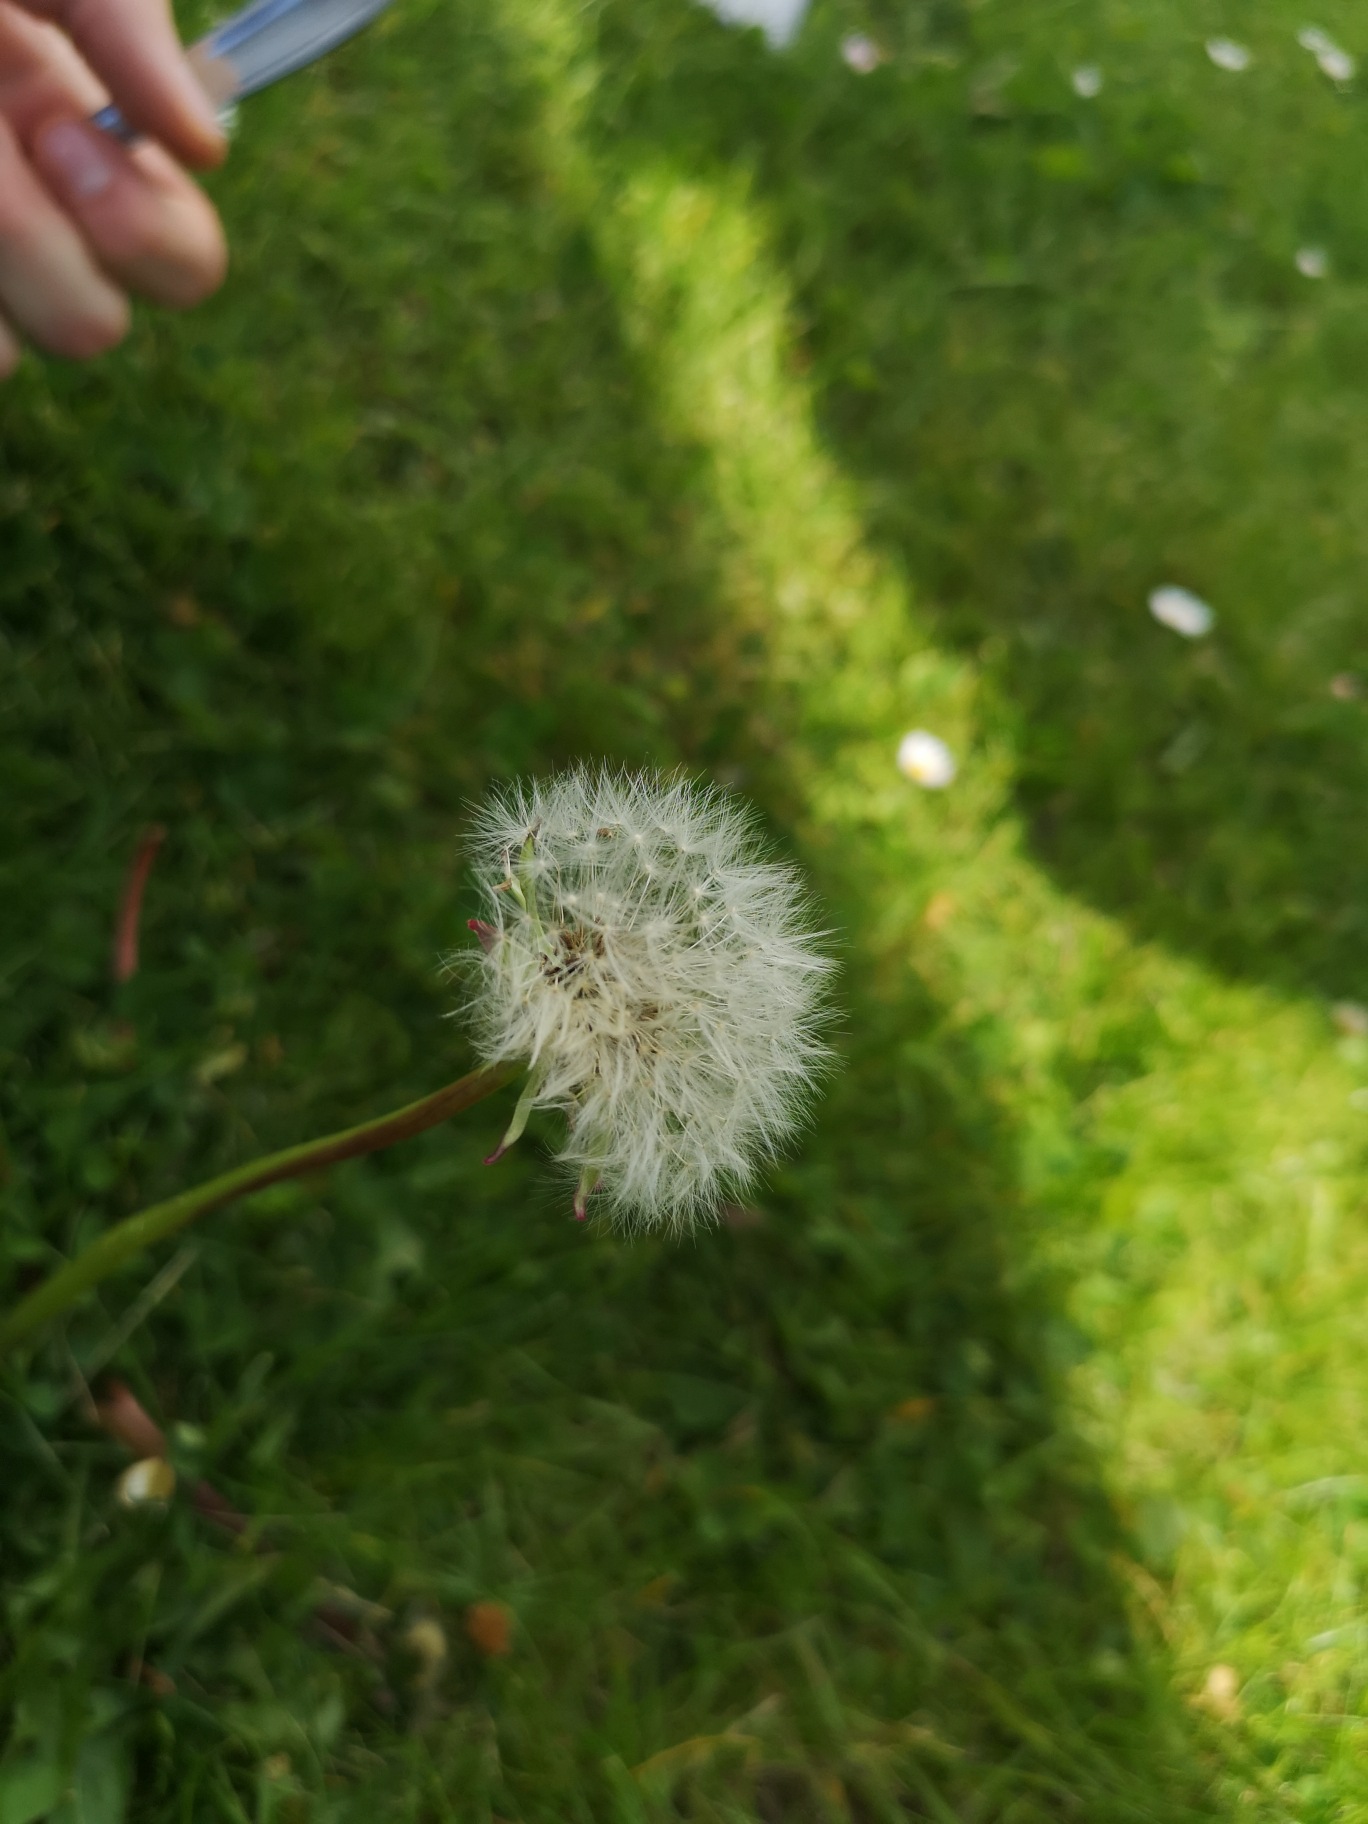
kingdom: Plantae
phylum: Tracheophyta
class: Magnoliopsida
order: Asterales
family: Asteraceae
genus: Taraxacum
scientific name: Taraxacum
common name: Mælkebøtteslægten
